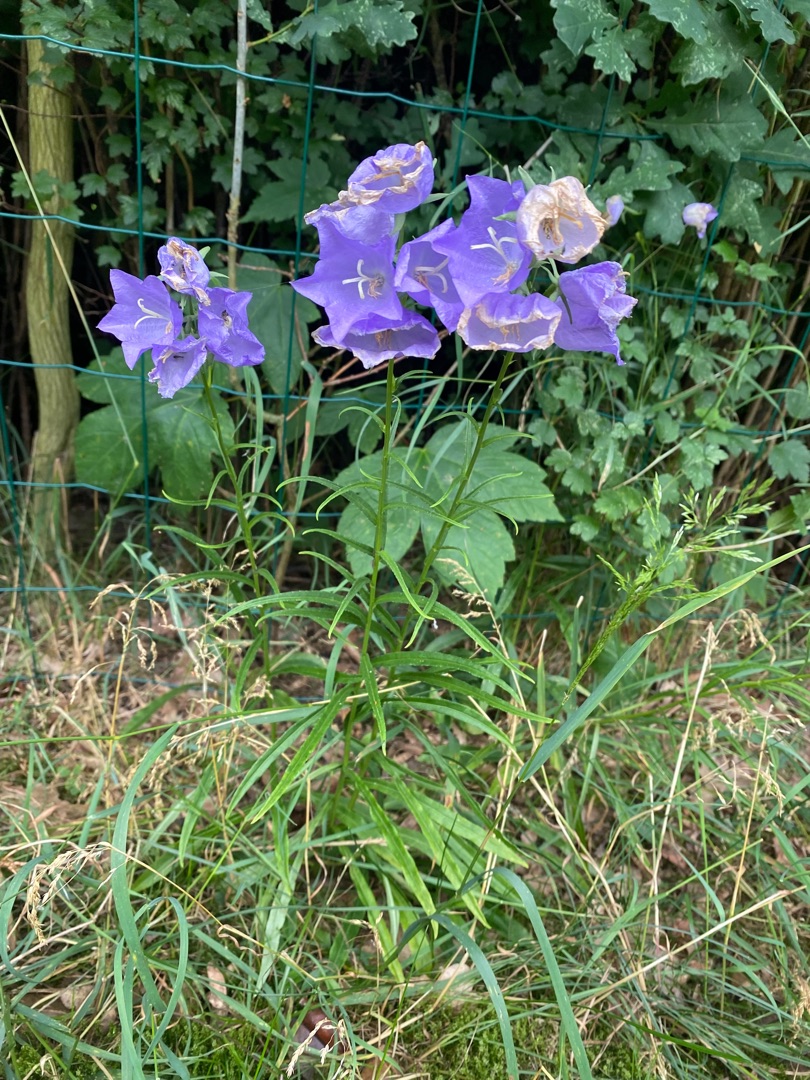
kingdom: Plantae
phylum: Tracheophyta
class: Magnoliopsida
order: Asterales
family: Campanulaceae
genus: Campanula
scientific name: Campanula persicifolia
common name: Smalbladet klokke
